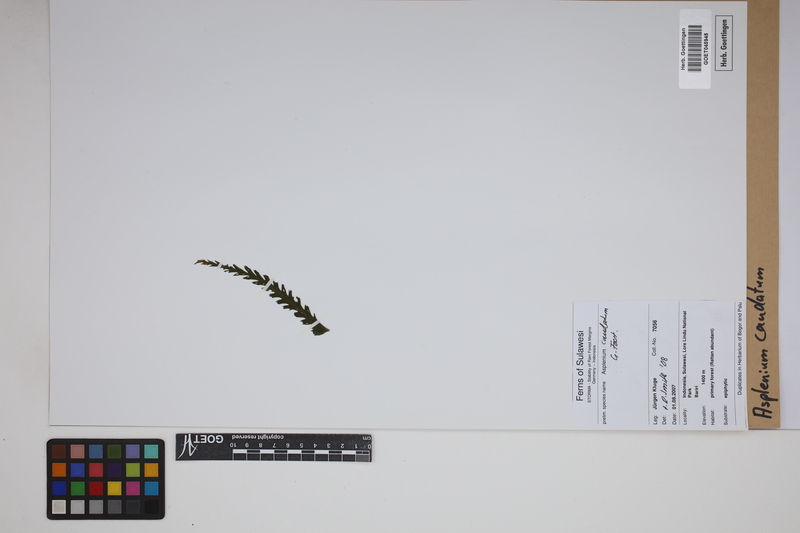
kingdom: Plantae
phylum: Tracheophyta
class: Polypodiopsida
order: Polypodiales
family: Aspleniaceae
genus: Asplenium
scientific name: Asplenium caudatum
